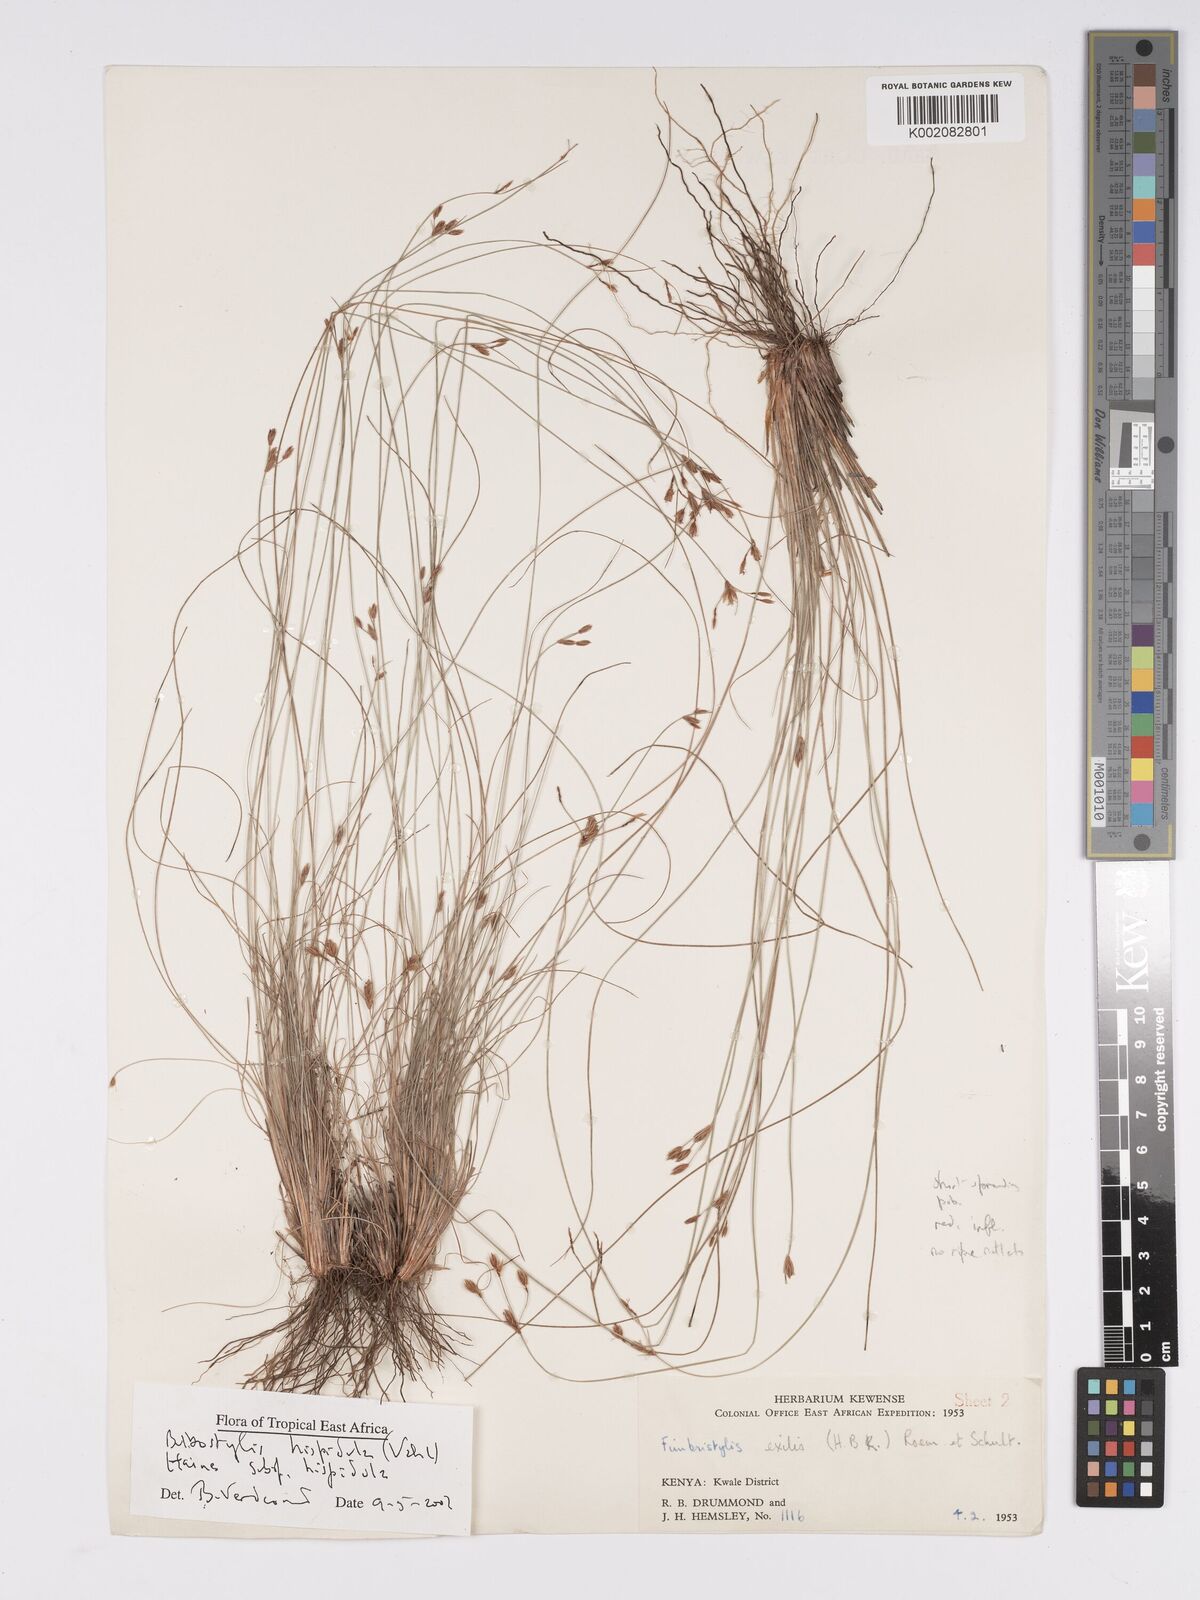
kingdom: Plantae
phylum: Tracheophyta
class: Liliopsida
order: Poales
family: Cyperaceae
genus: Bulbostylis
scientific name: Bulbostylis hispidula
